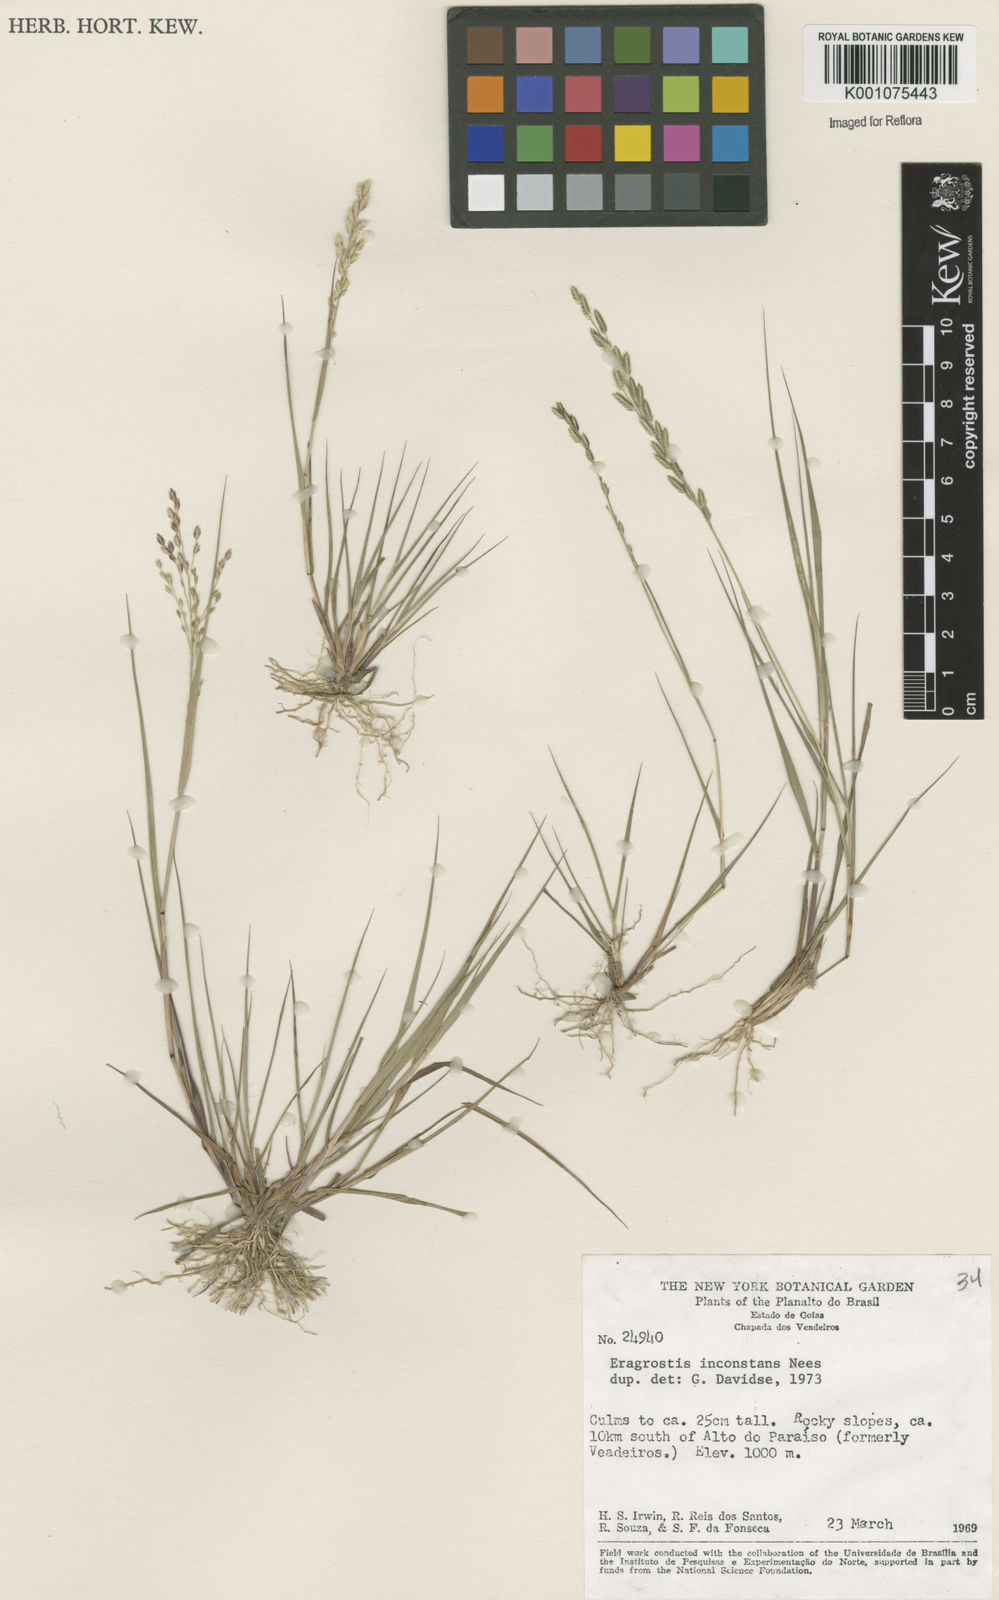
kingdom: Plantae
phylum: Tracheophyta
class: Liliopsida
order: Poales
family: Poaceae
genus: Eragrostis
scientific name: Eragrostis rufescens
